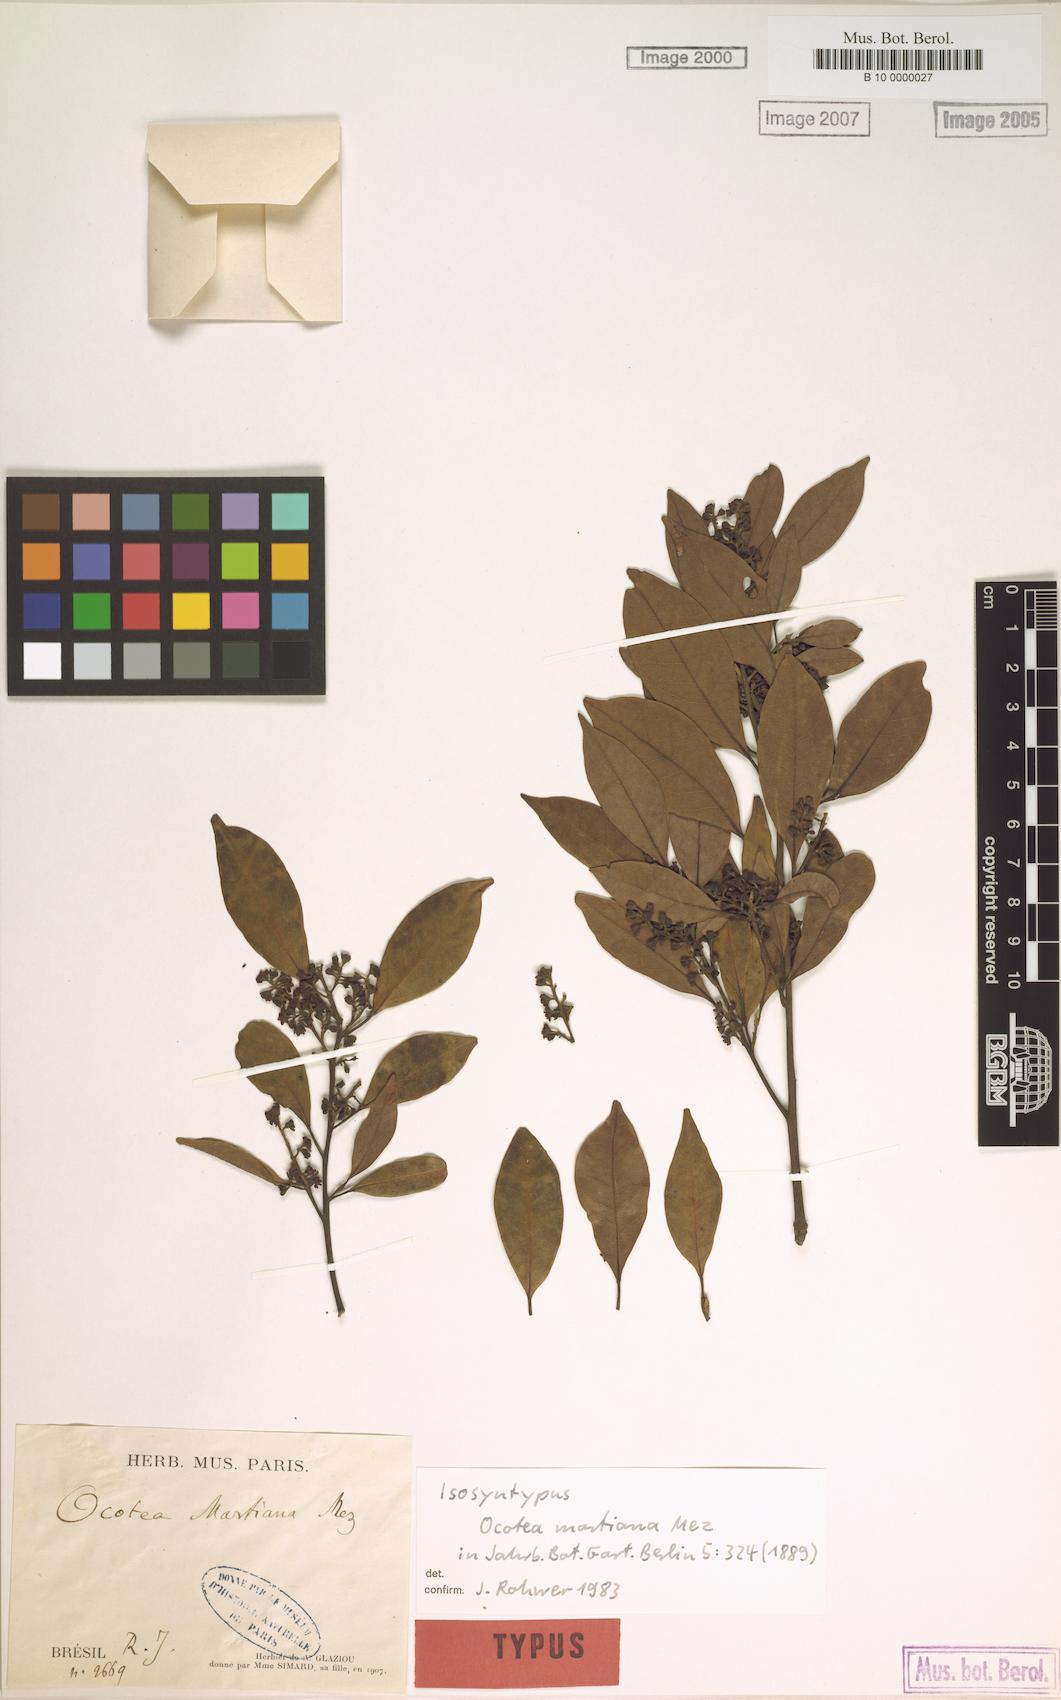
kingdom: Plantae
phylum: Tracheophyta
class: Magnoliopsida
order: Laurales
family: Lauraceae
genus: Ocotea
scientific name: Ocotea lancifolia
